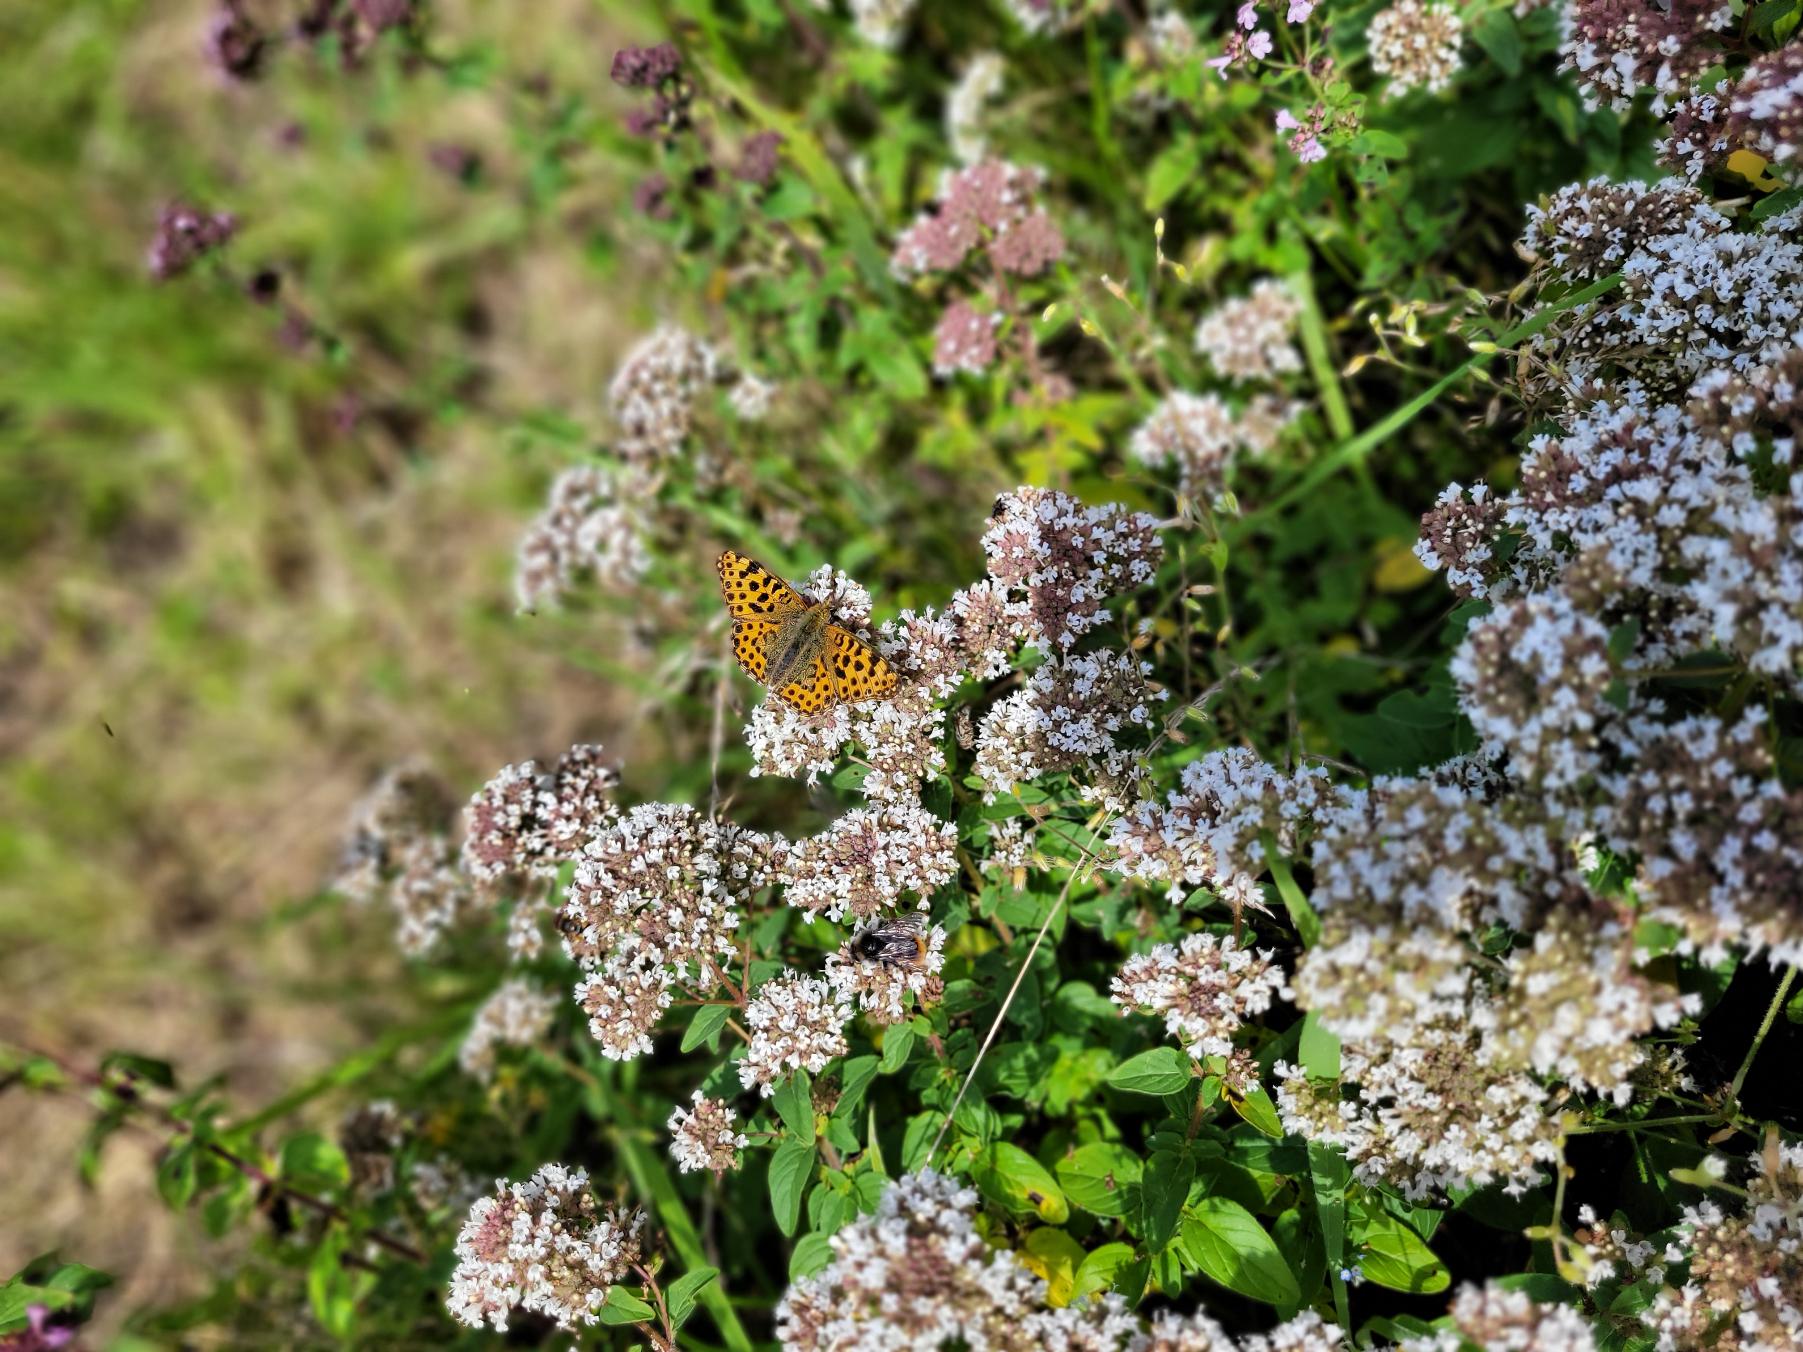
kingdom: Animalia
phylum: Arthropoda
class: Insecta
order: Lepidoptera
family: Nymphalidae
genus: Issoria
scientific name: Issoria lathonia
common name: Storplettet perlemorsommerfugl
